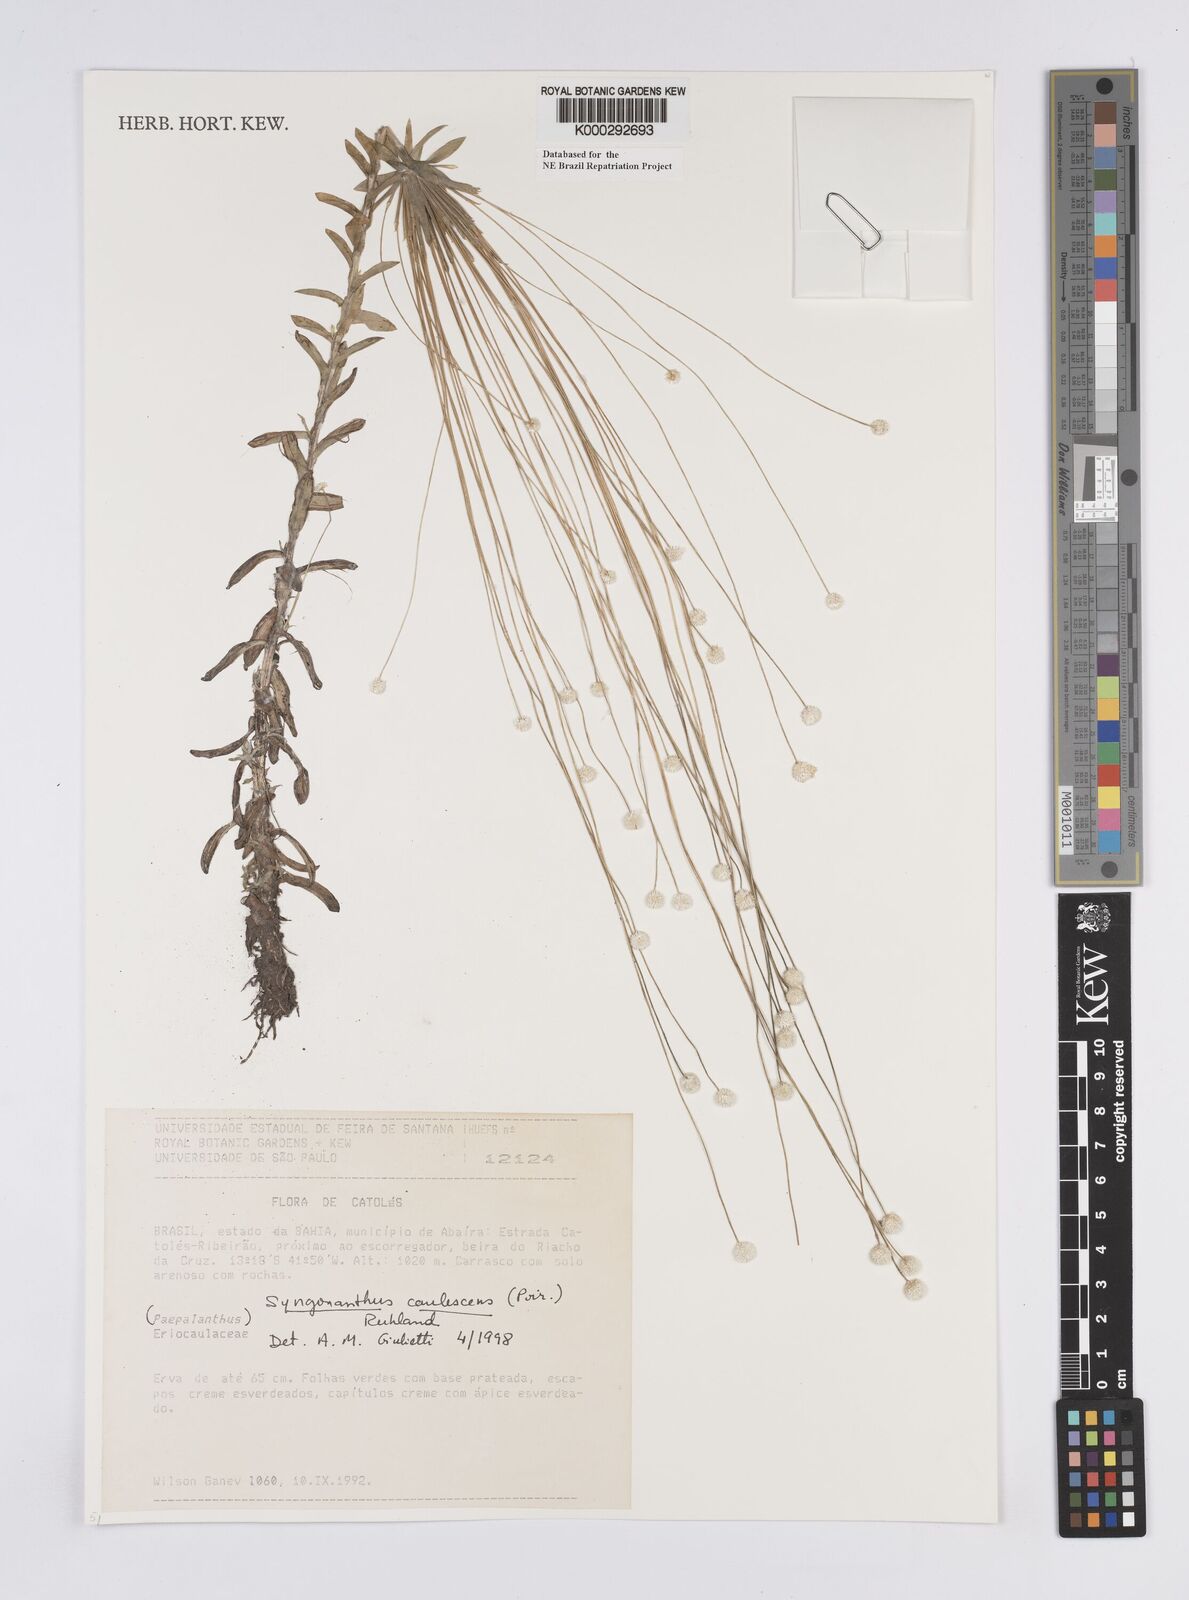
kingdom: Plantae
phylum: Tracheophyta
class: Liliopsida
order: Poales
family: Eriocaulaceae
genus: Syngonanthus
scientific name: Syngonanthus caulescens
